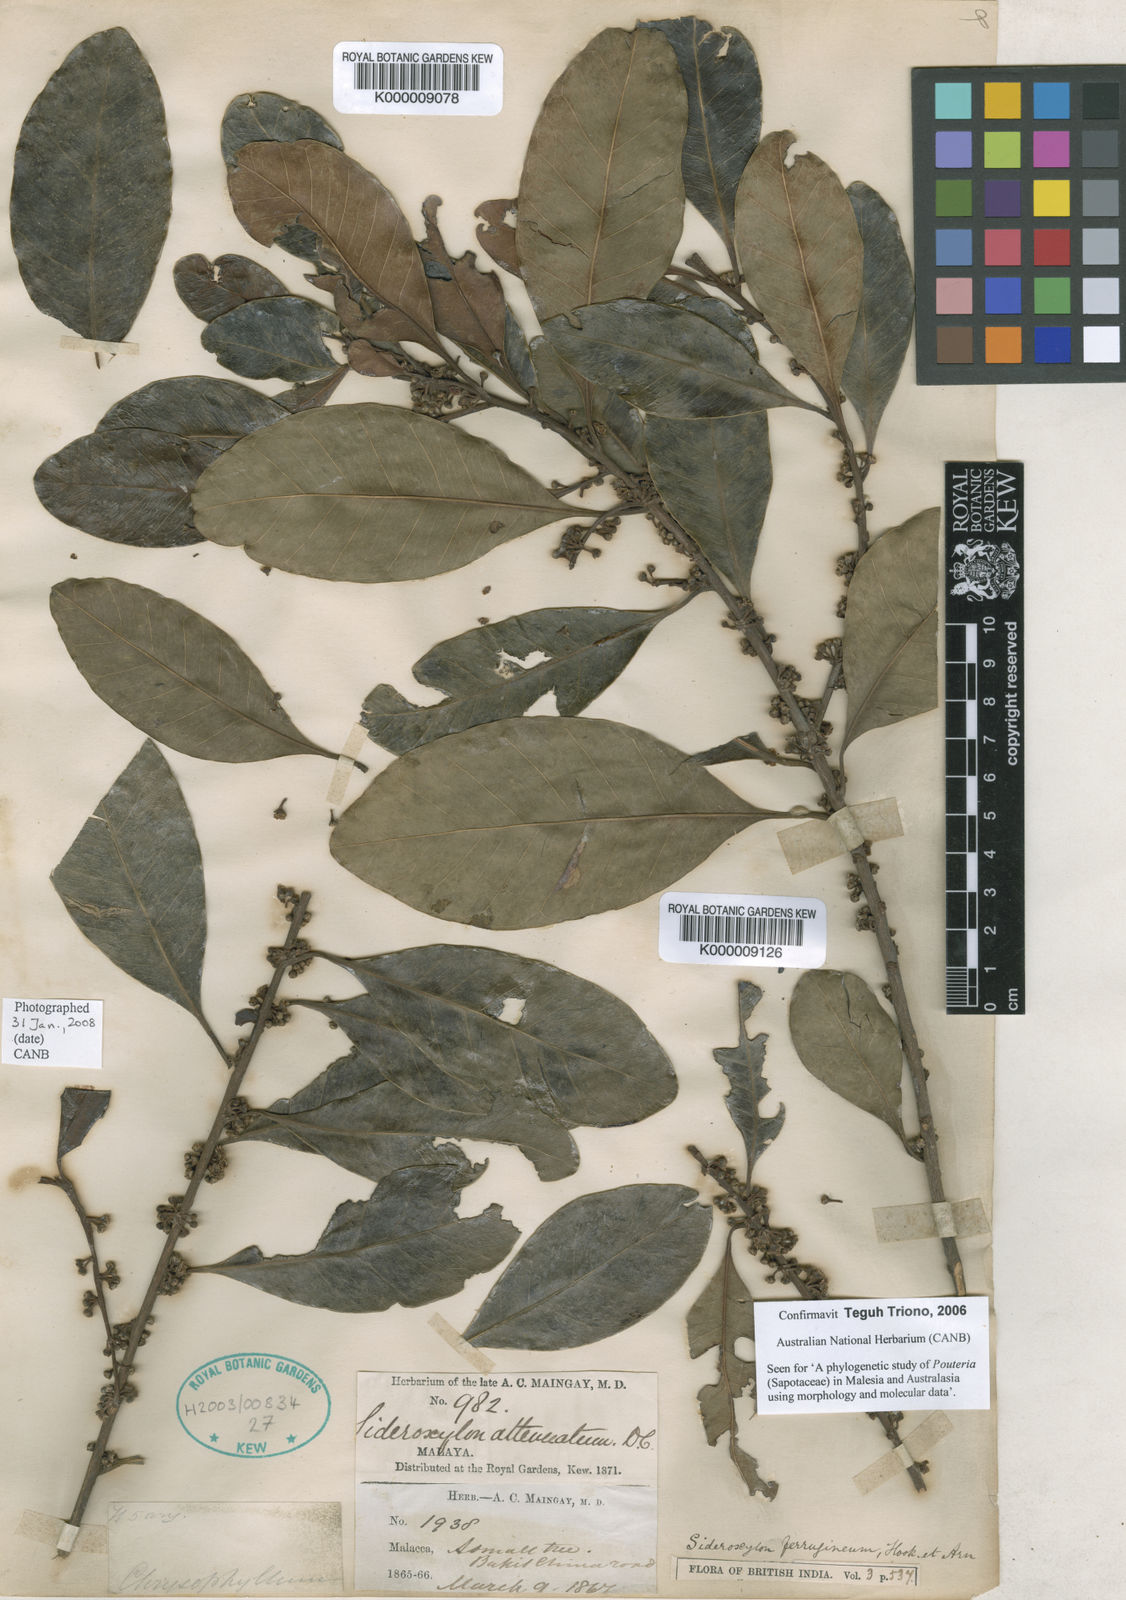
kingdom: Plantae
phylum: Tracheophyta
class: Magnoliopsida
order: Ericales
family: Sapotaceae
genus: Planchonella
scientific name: Planchonella obovata
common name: Black-ash
